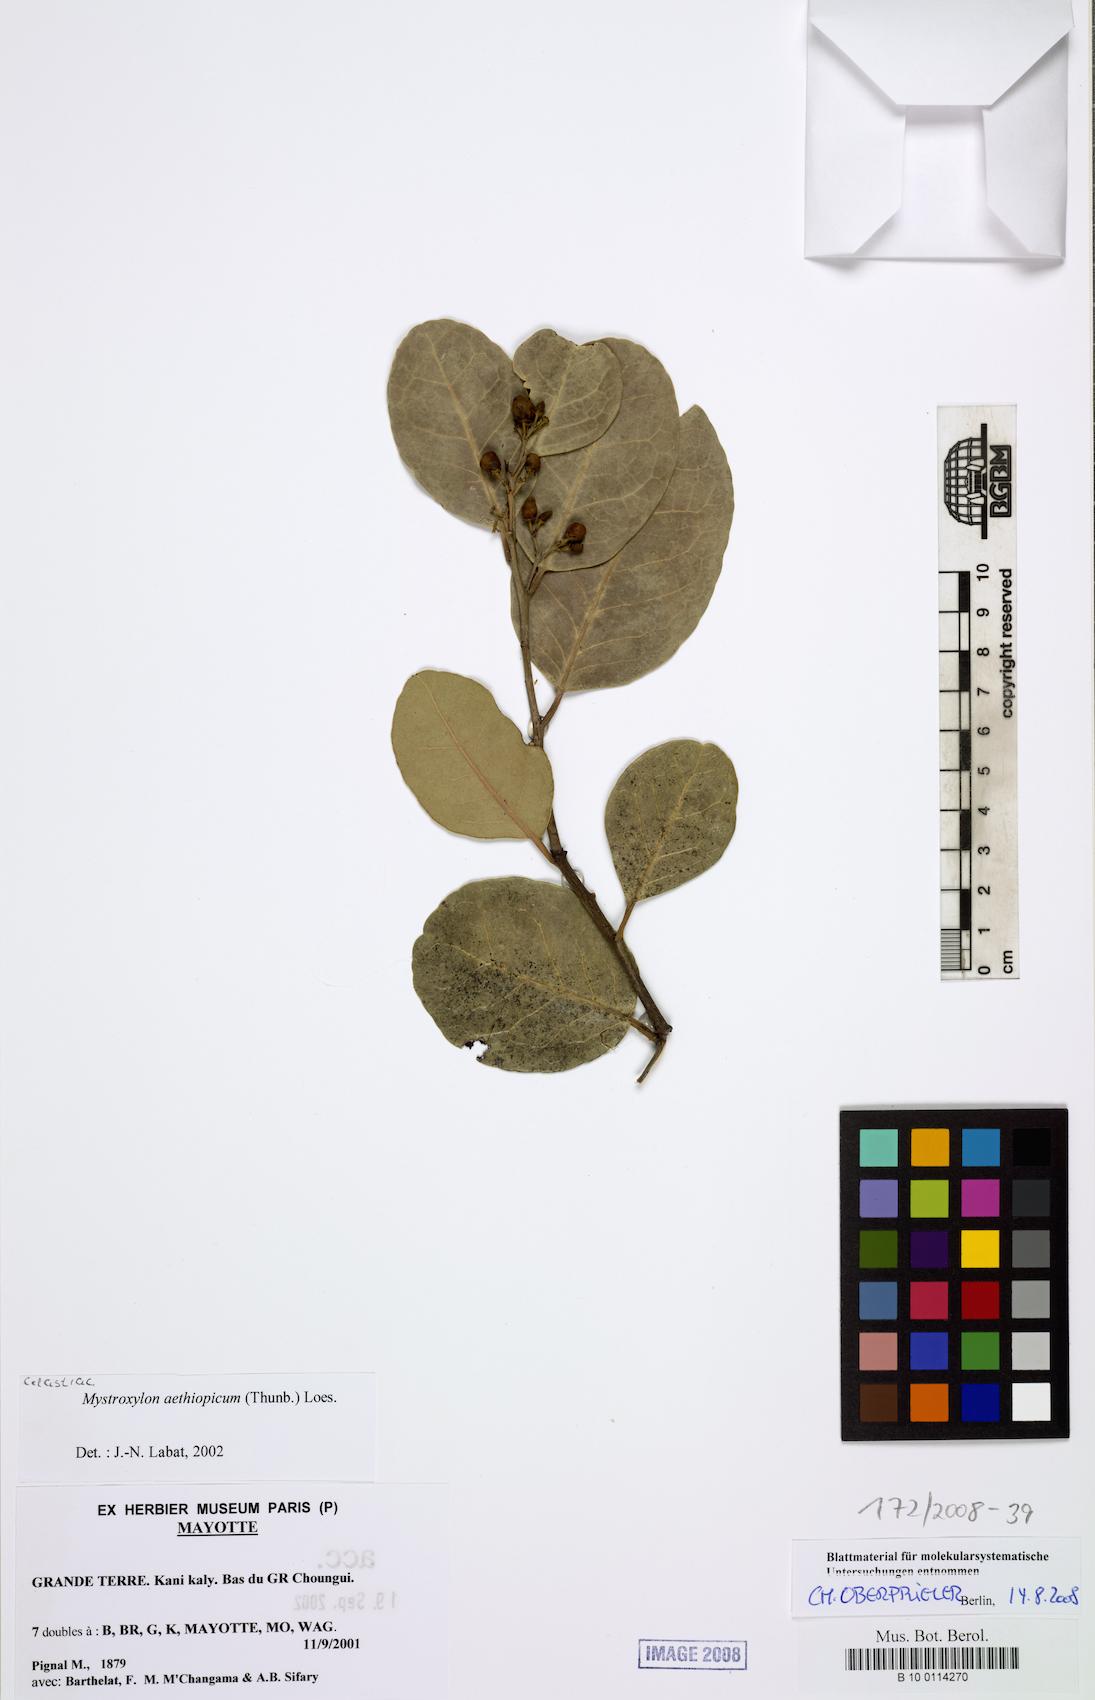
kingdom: Plantae
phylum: Tracheophyta
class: Magnoliopsida
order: Celastrales
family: Celastraceae
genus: Mystroxylon
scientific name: Mystroxylon aethiopicum
